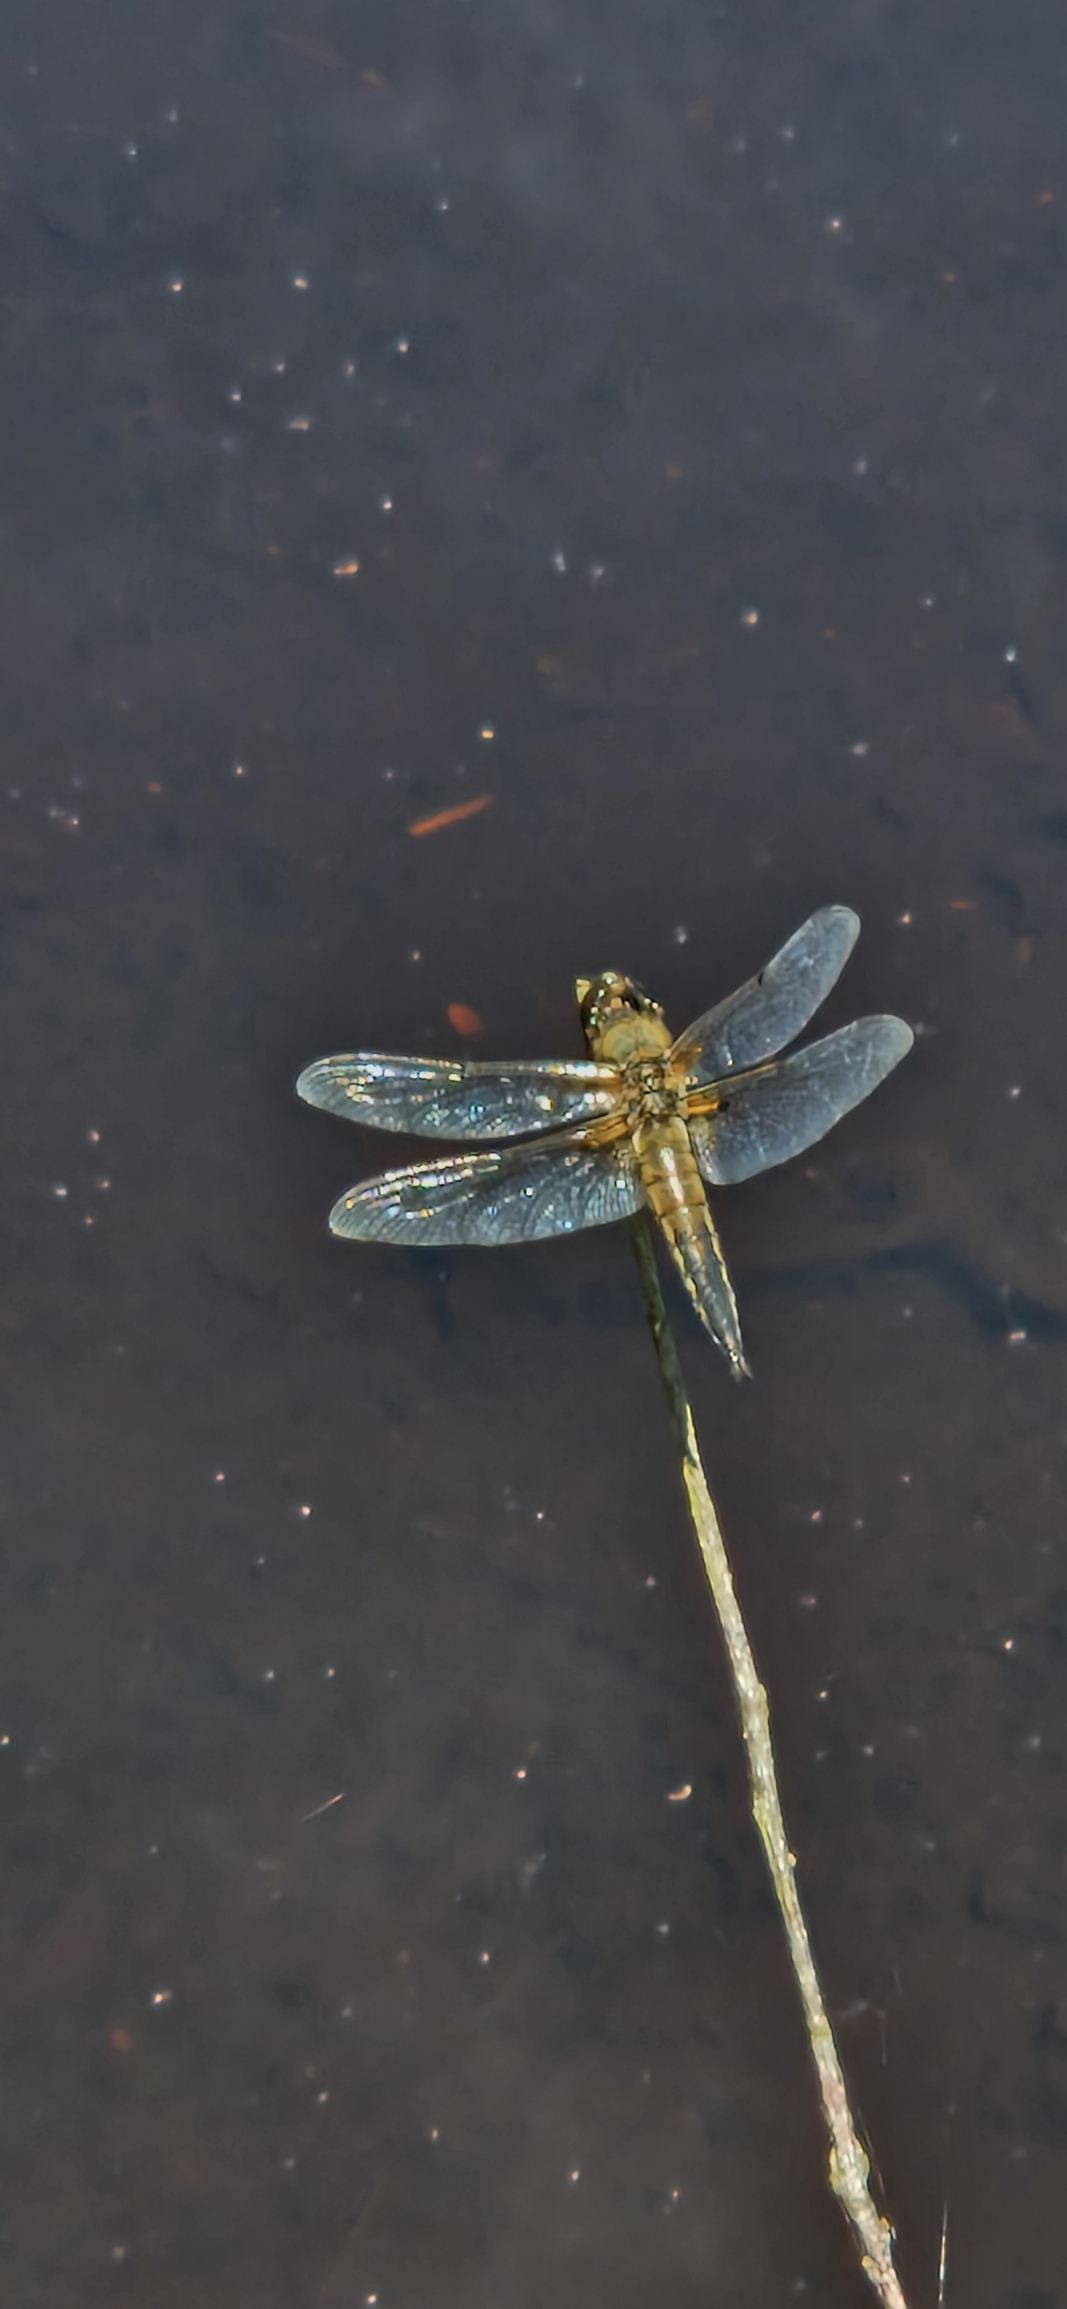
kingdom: Animalia
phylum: Arthropoda
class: Insecta
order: Odonata
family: Libellulidae
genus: Libellula
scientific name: Libellula quadrimaculata
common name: Fireplettet libel
